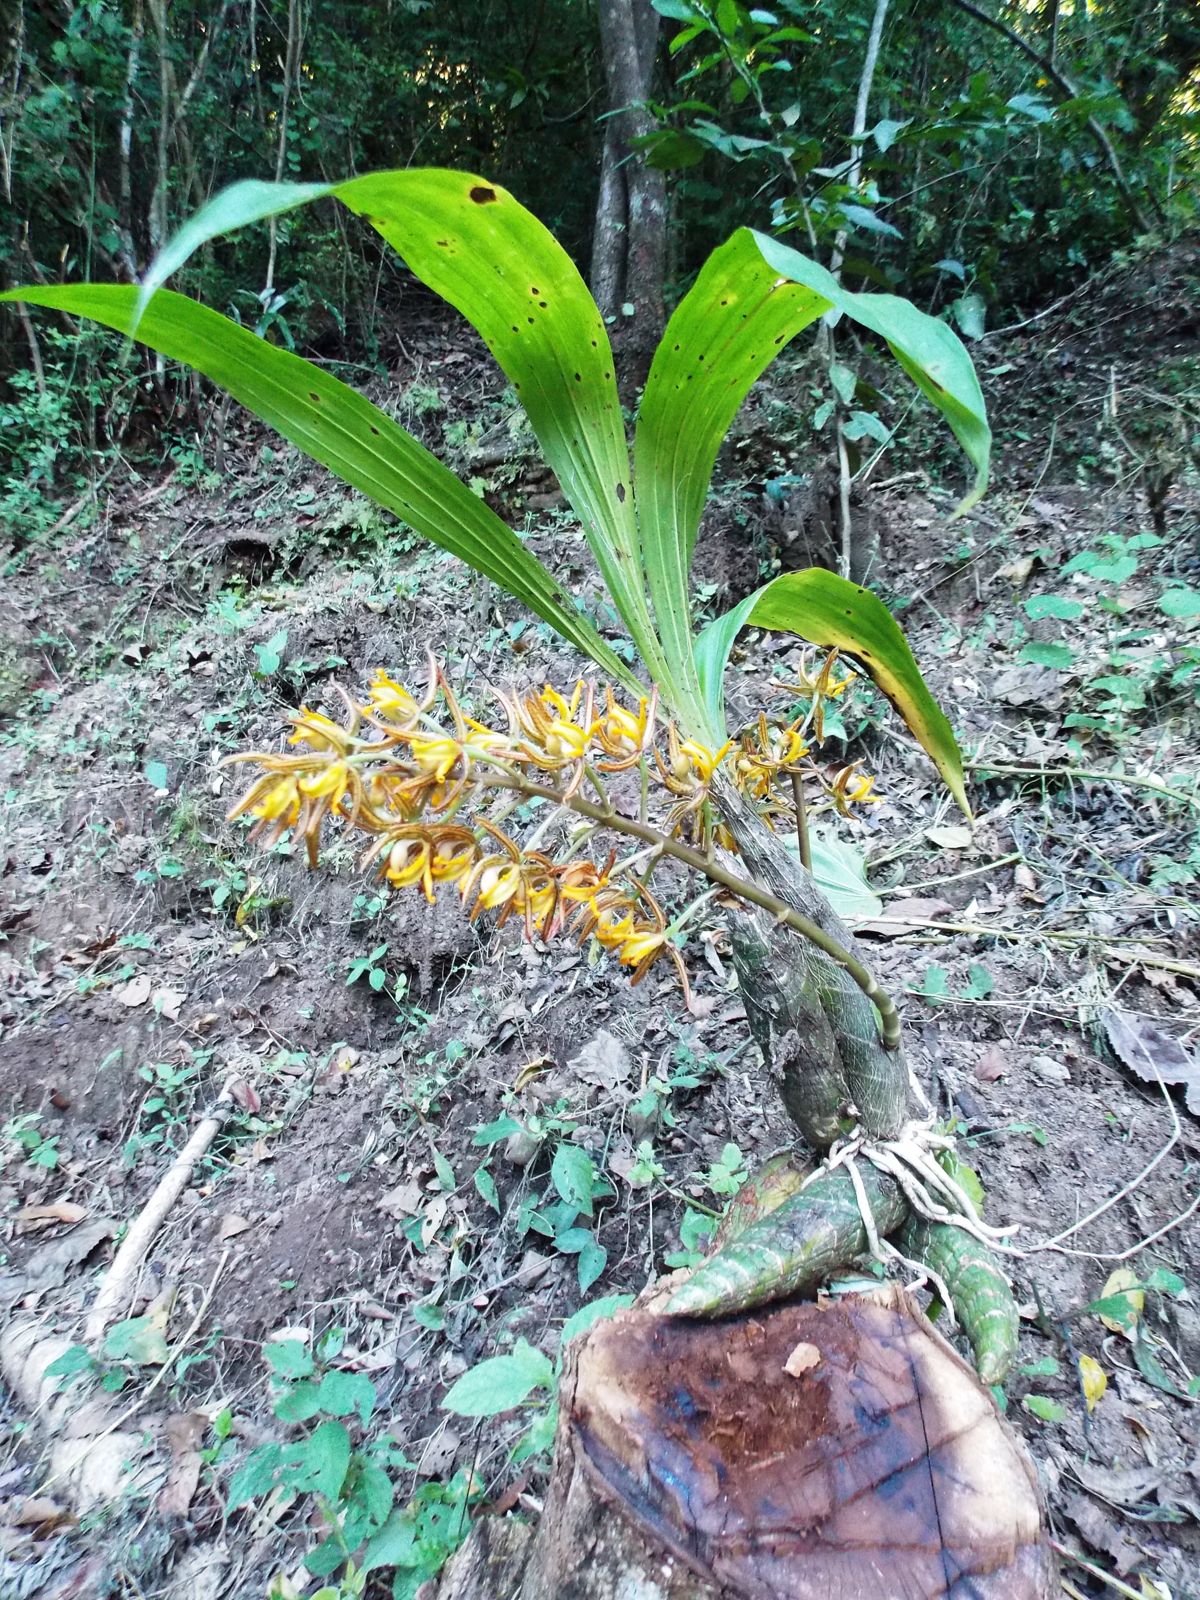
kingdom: Plantae
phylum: Tracheophyta
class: Liliopsida
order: Asparagales
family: Orchidaceae
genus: Mormodes
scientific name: Mormodes warszewiczii
